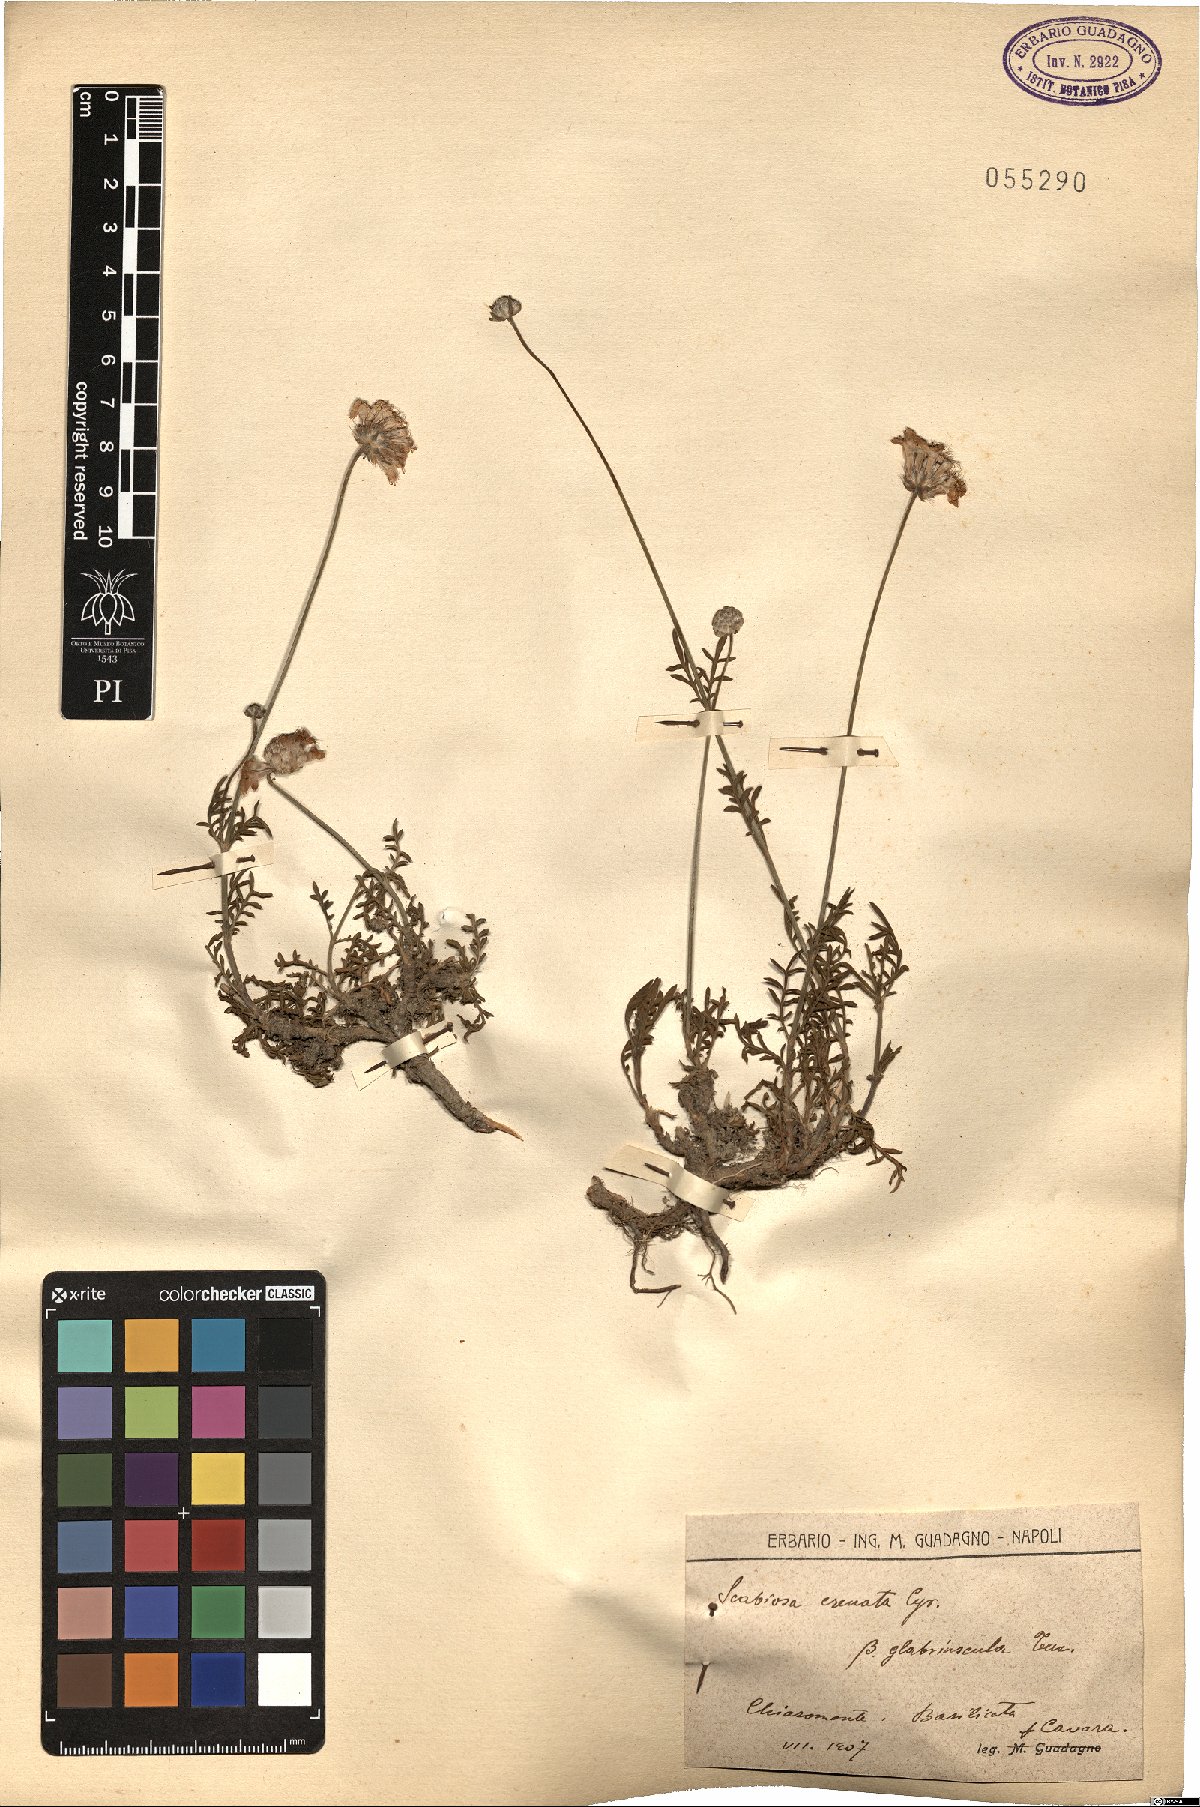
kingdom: Plantae
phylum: Tracheophyta
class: Magnoliopsida
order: Dipsacales
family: Caprifoliaceae
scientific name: Caprifoliaceae
